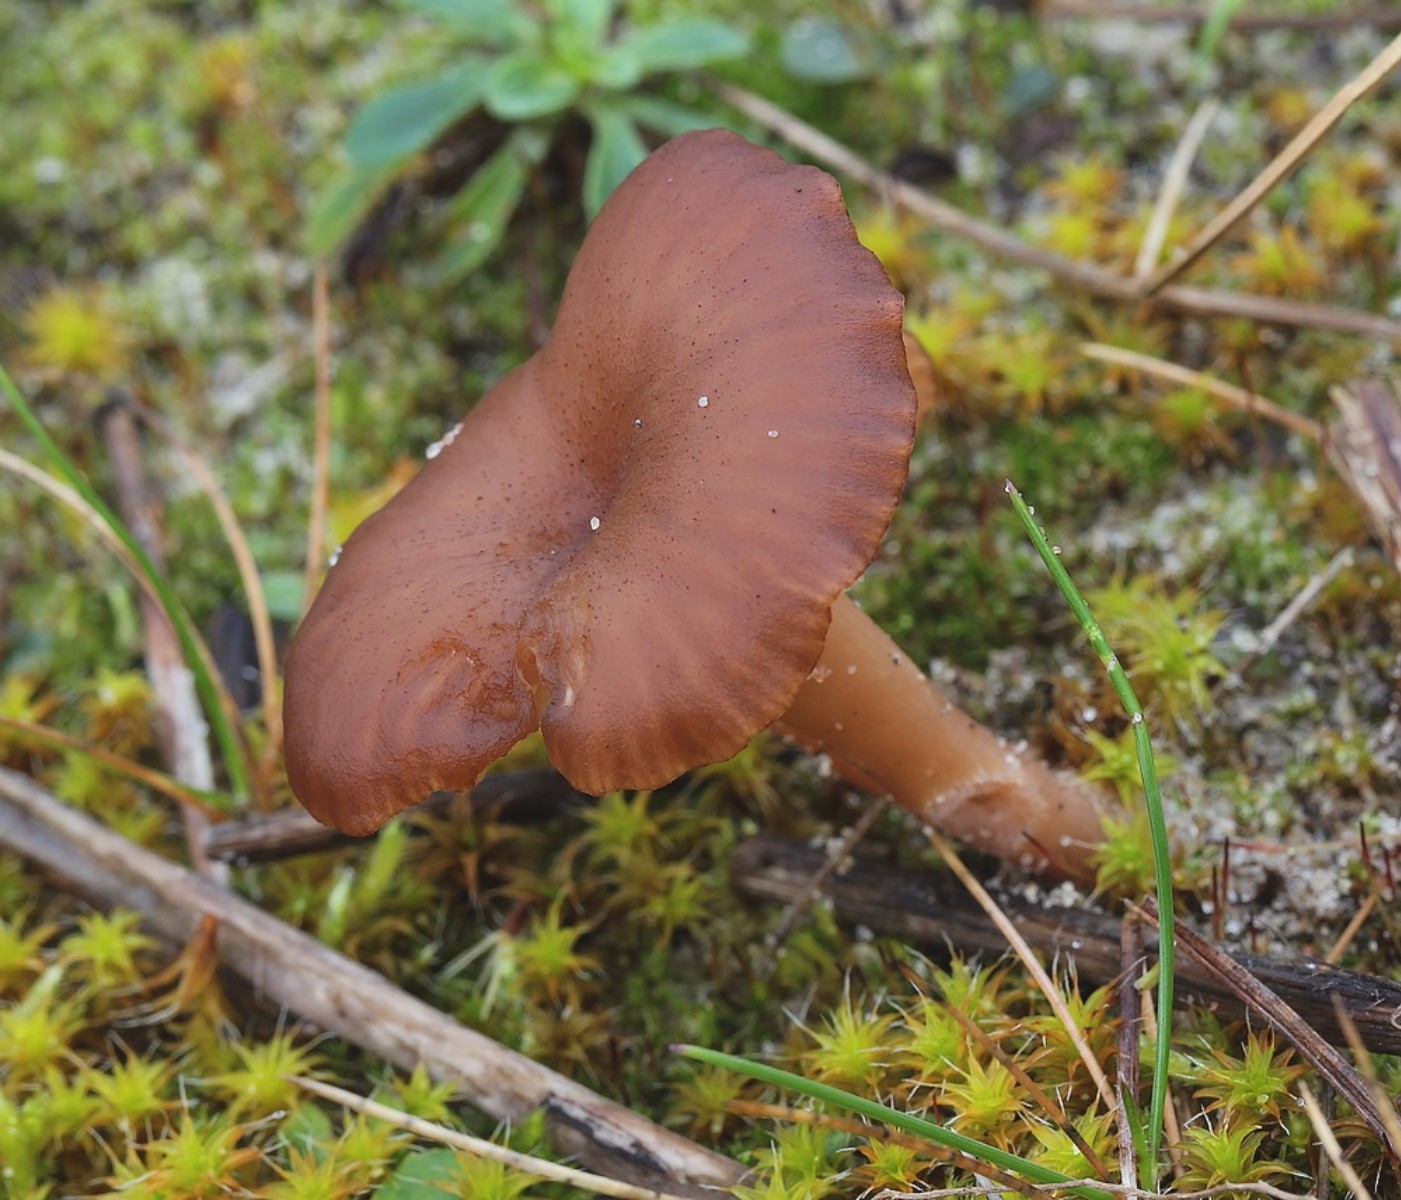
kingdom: Fungi
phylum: Basidiomycota
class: Agaricomycetes
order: Agaricales
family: Tricholomataceae
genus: Omphalina
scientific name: Omphalina pyxidata
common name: rødbrun navlehat
